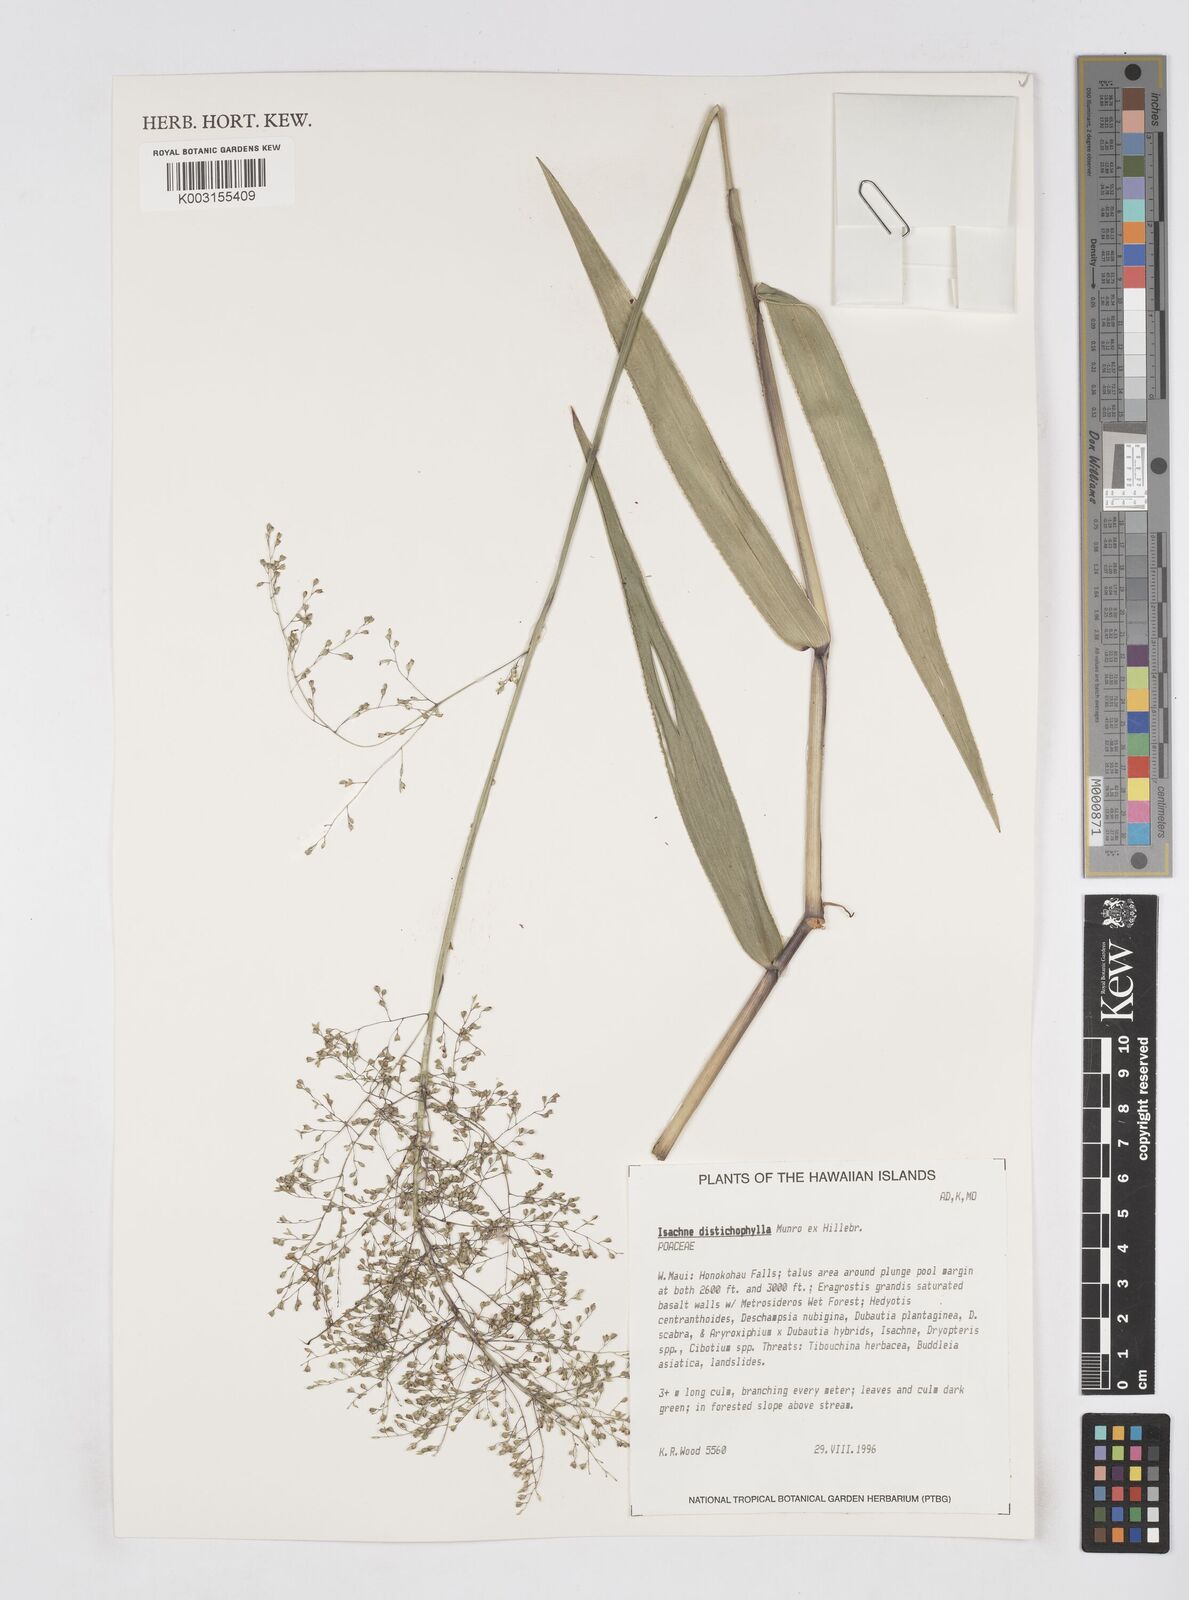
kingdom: Plantae
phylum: Tracheophyta
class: Liliopsida
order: Poales
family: Poaceae
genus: Isachne
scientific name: Isachne distichophylla
